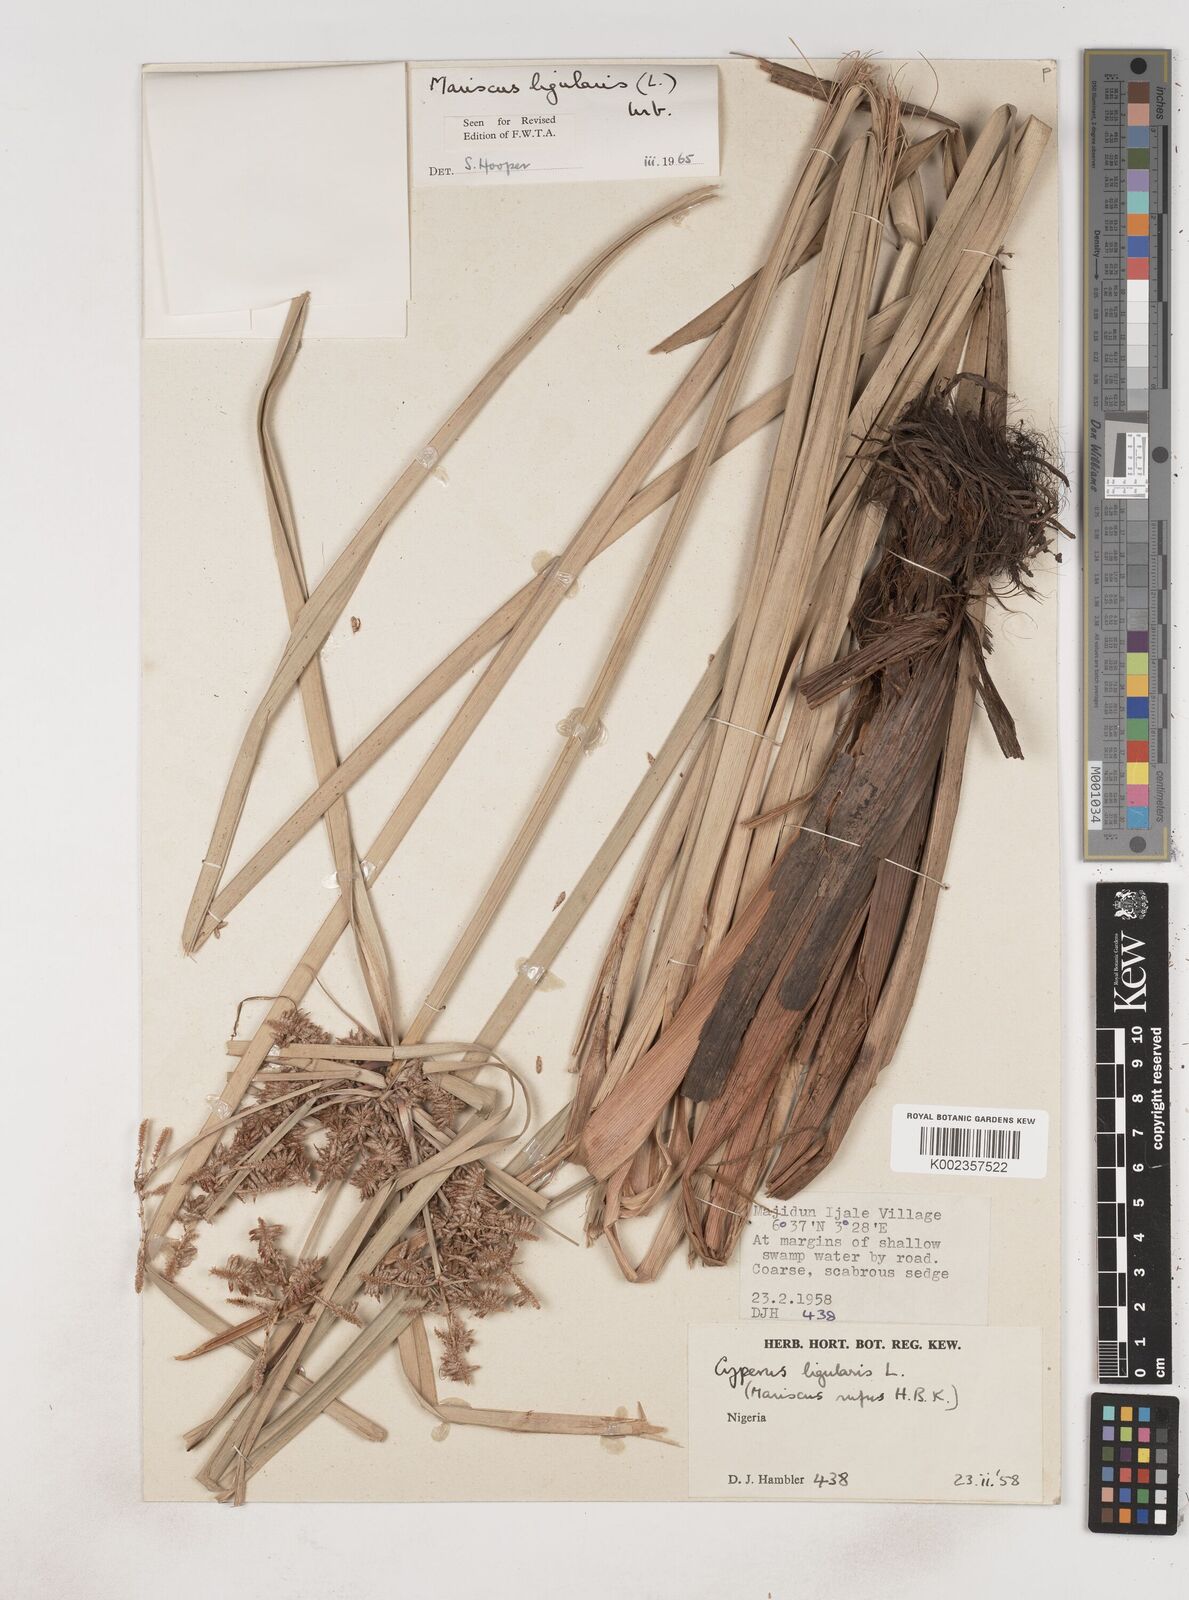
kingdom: Plantae
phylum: Tracheophyta
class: Liliopsida
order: Poales
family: Cyperaceae
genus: Cyperus
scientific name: Cyperus ligularis
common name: Swamp flat sedge
